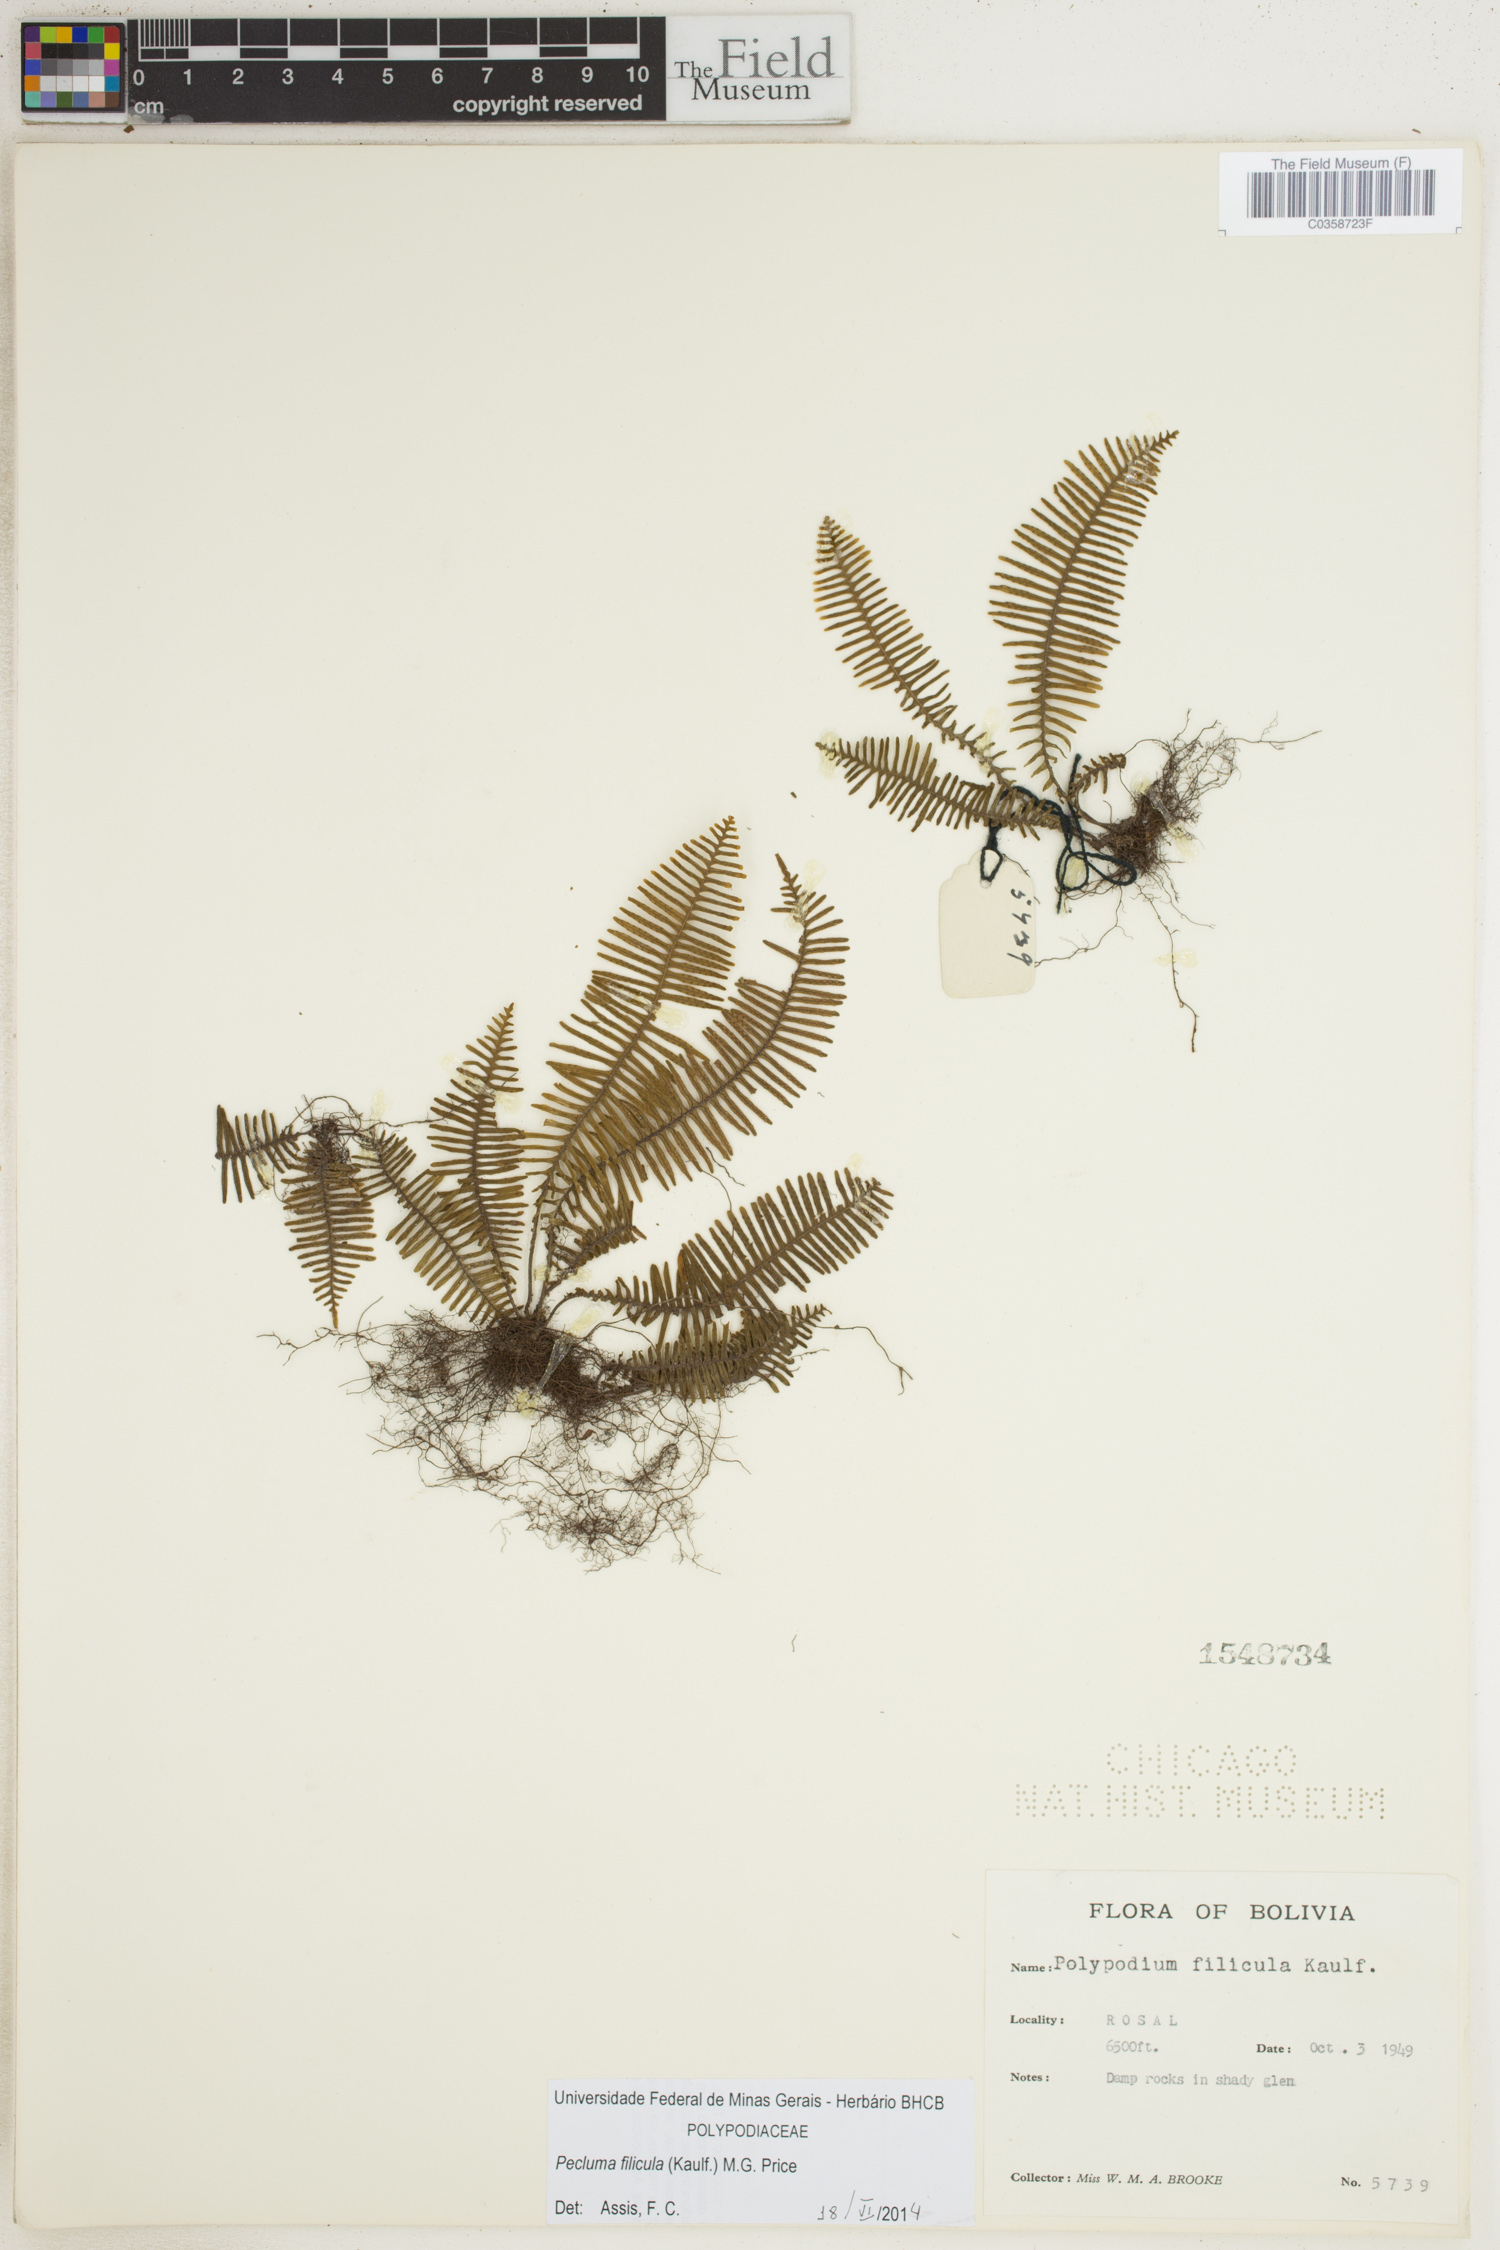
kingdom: Plantae
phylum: Tracheophyta
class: Polypodiopsida
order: Polypodiales
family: Polypodiaceae
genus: Pecluma
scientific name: Pecluma filicula
